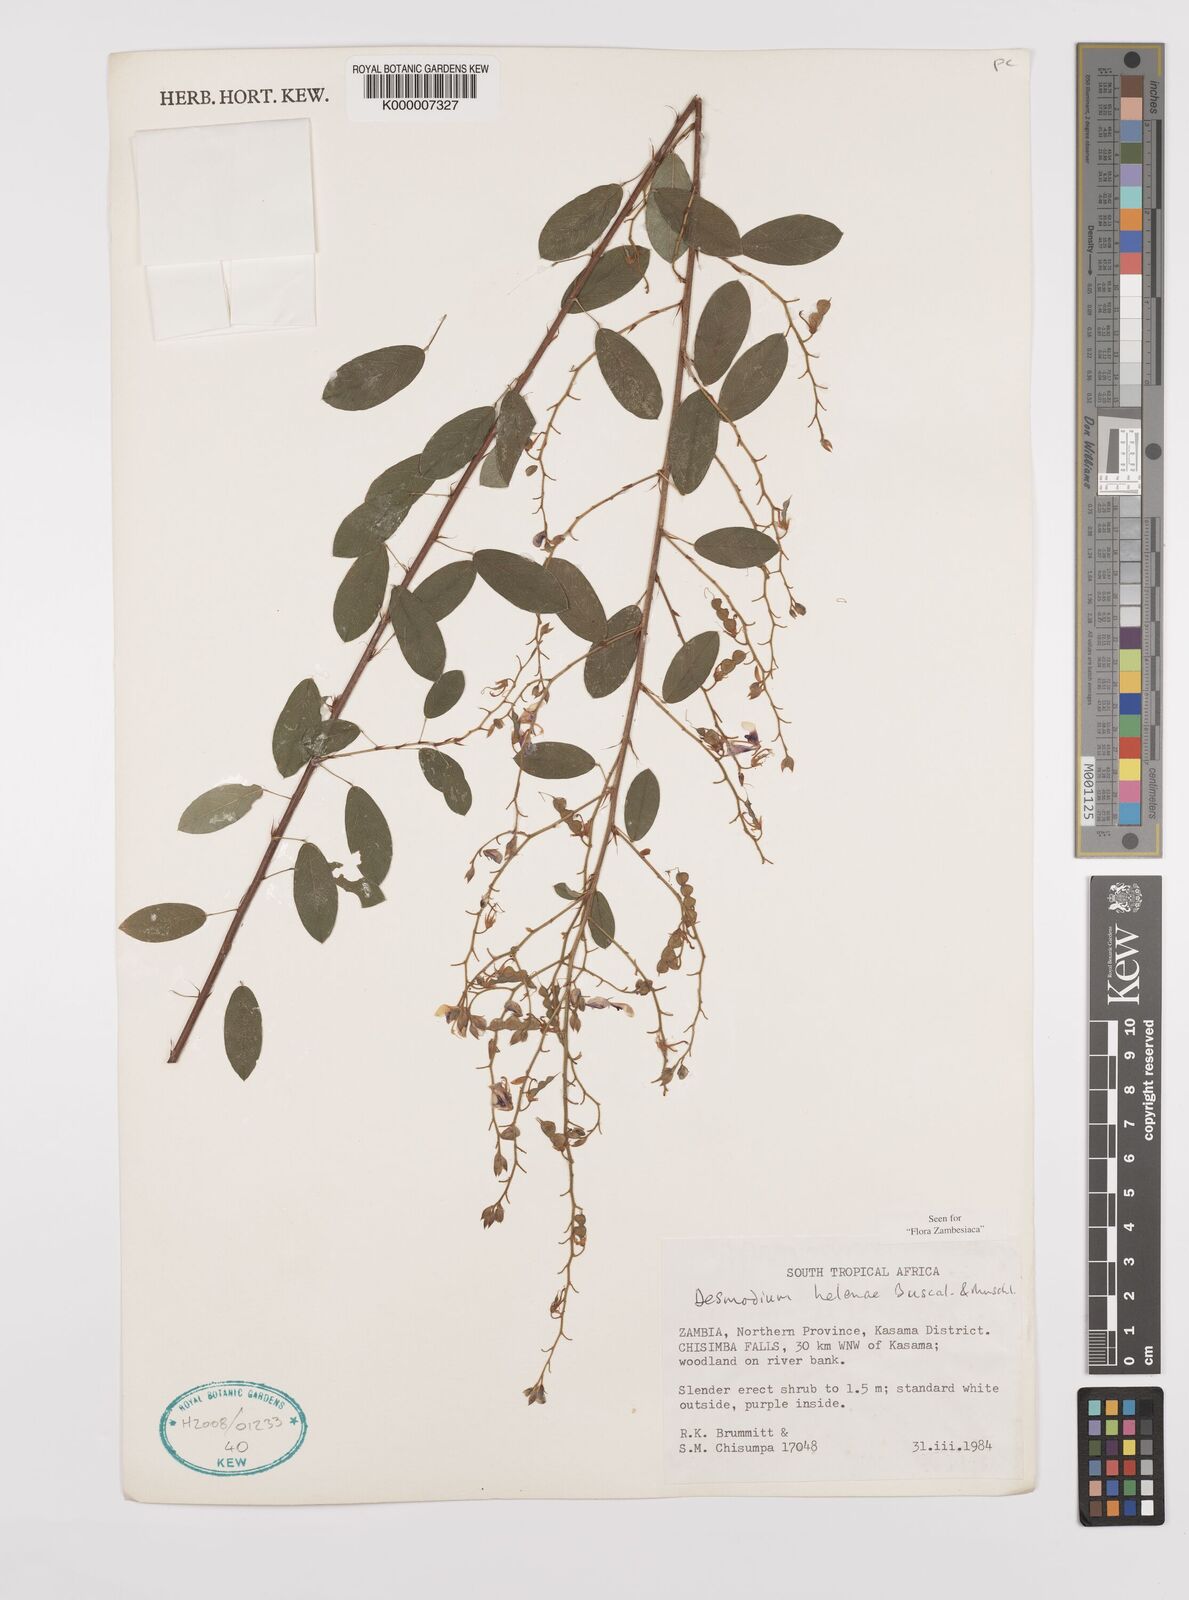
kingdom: Plantae
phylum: Tracheophyta
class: Magnoliopsida
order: Fabales
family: Fabaceae
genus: Grona
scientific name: Grona helenae
